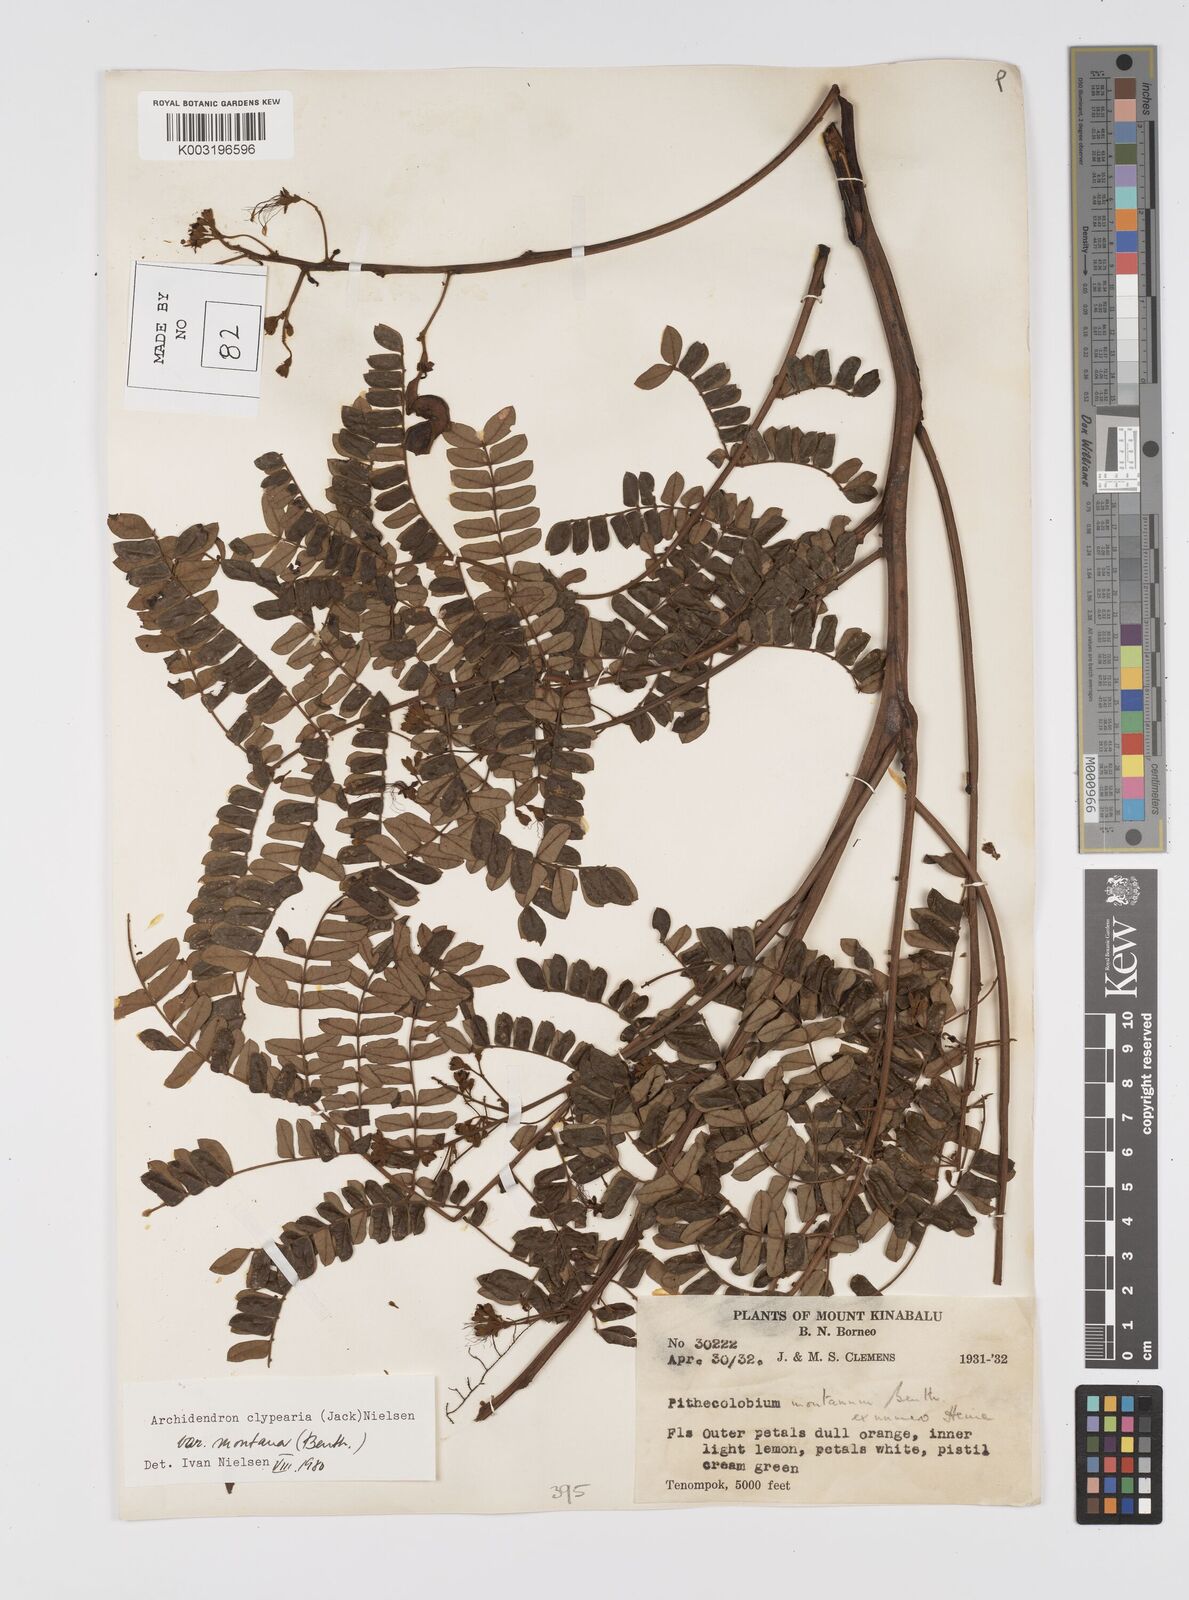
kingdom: Plantae
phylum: Tracheophyta
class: Magnoliopsida
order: Fabales
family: Fabaceae
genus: Archidendron
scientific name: Archidendron clypearia
